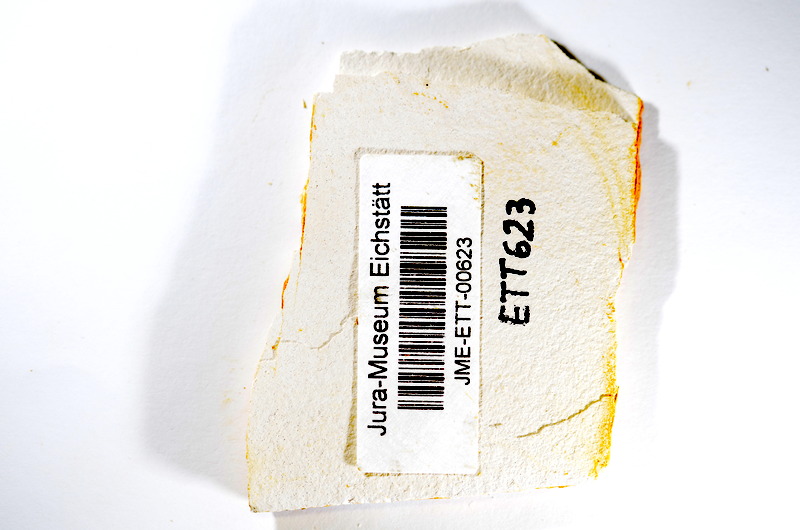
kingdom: Animalia
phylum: Chordata
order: Salmoniformes
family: Orthogonikleithridae
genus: Orthogonikleithrus
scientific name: Orthogonikleithrus hoelli
